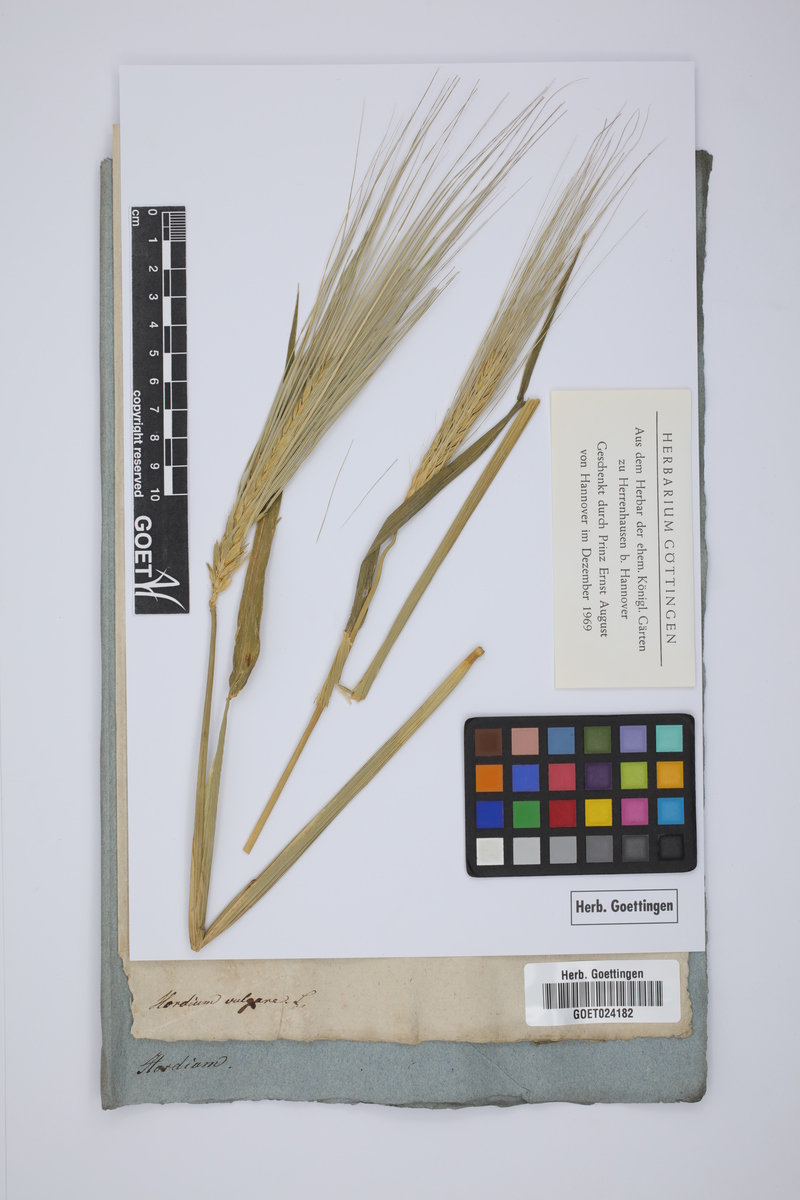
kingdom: Plantae
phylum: Tracheophyta
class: Liliopsida
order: Poales
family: Poaceae
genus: Hordeum
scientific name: Hordeum vulgare
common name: Common barley
